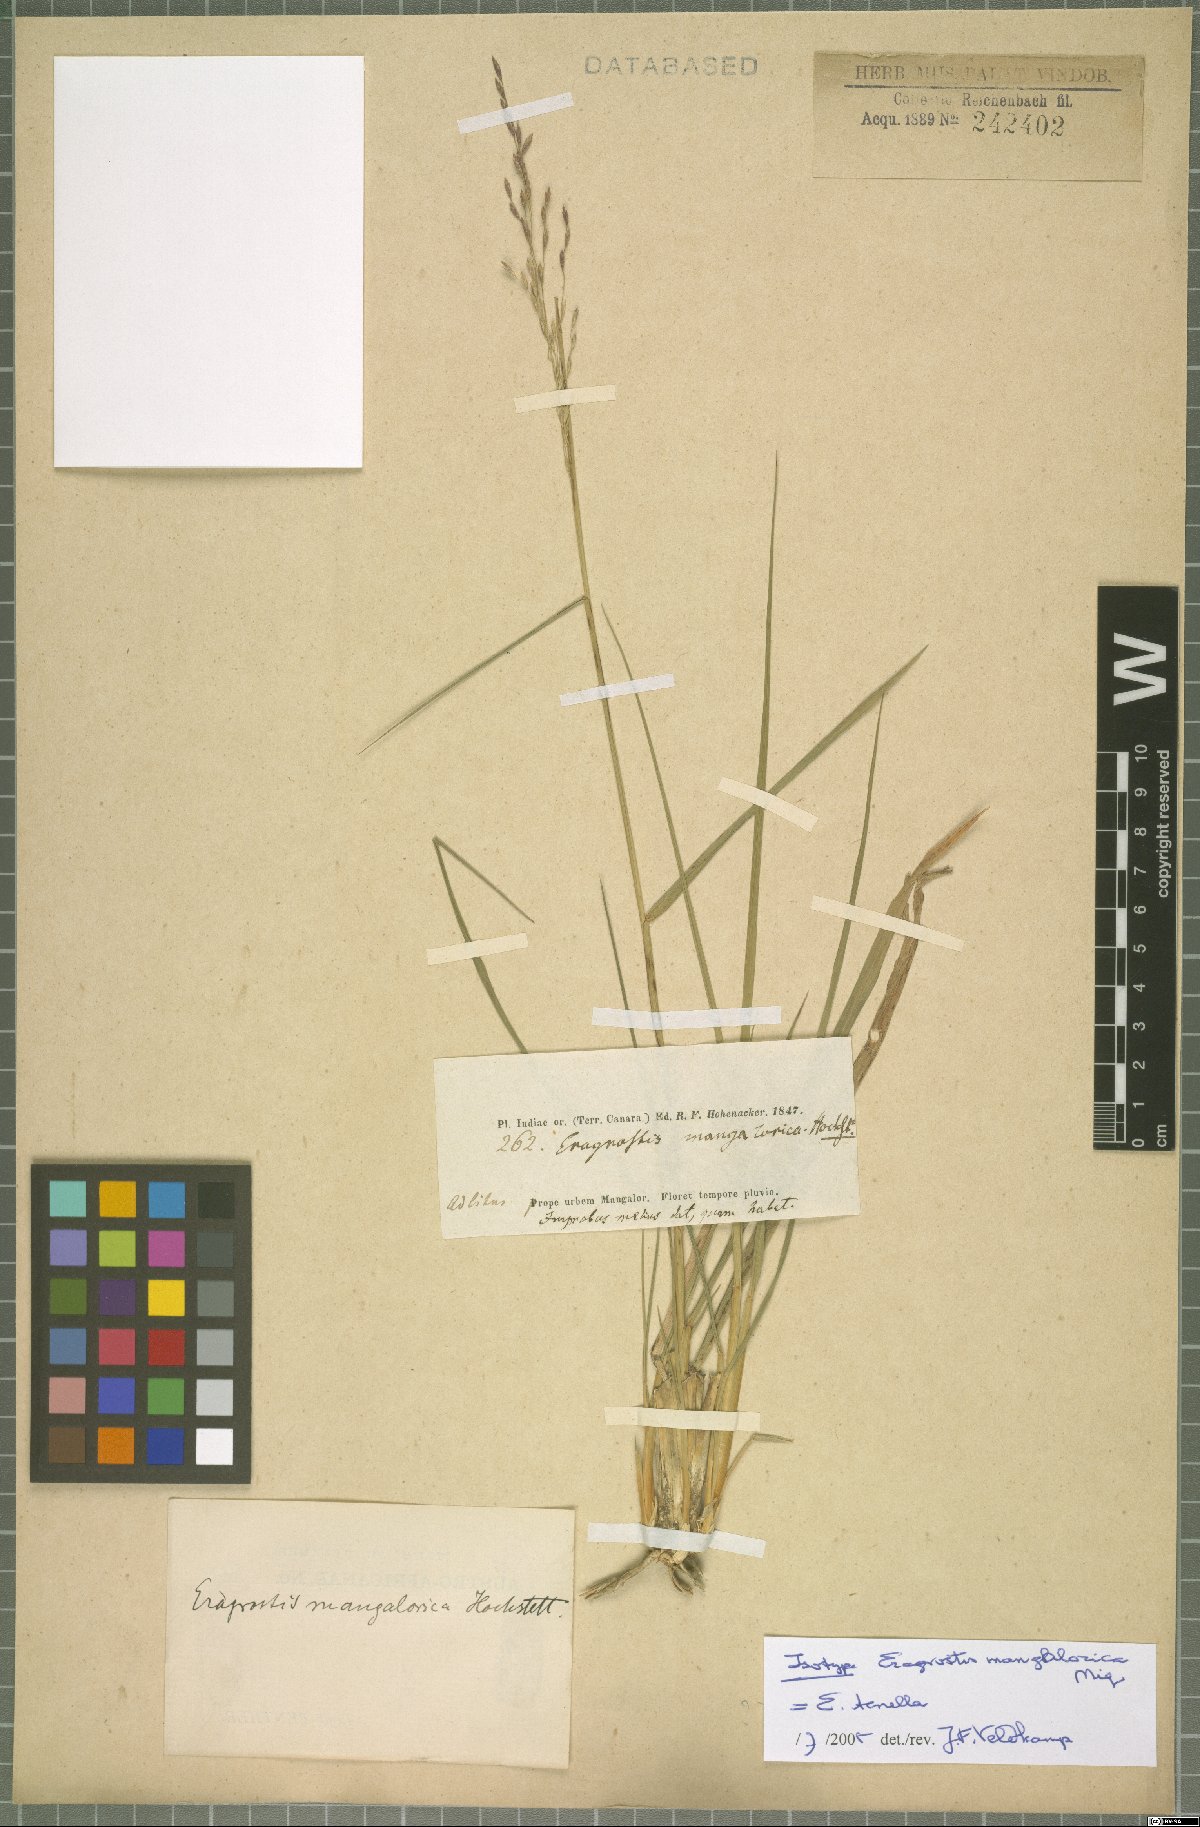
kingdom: Plantae
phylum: Tracheophyta
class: Liliopsida
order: Poales
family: Poaceae
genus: Eragrostis
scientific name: Eragrostis tenella
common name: Japanese lovegrass
